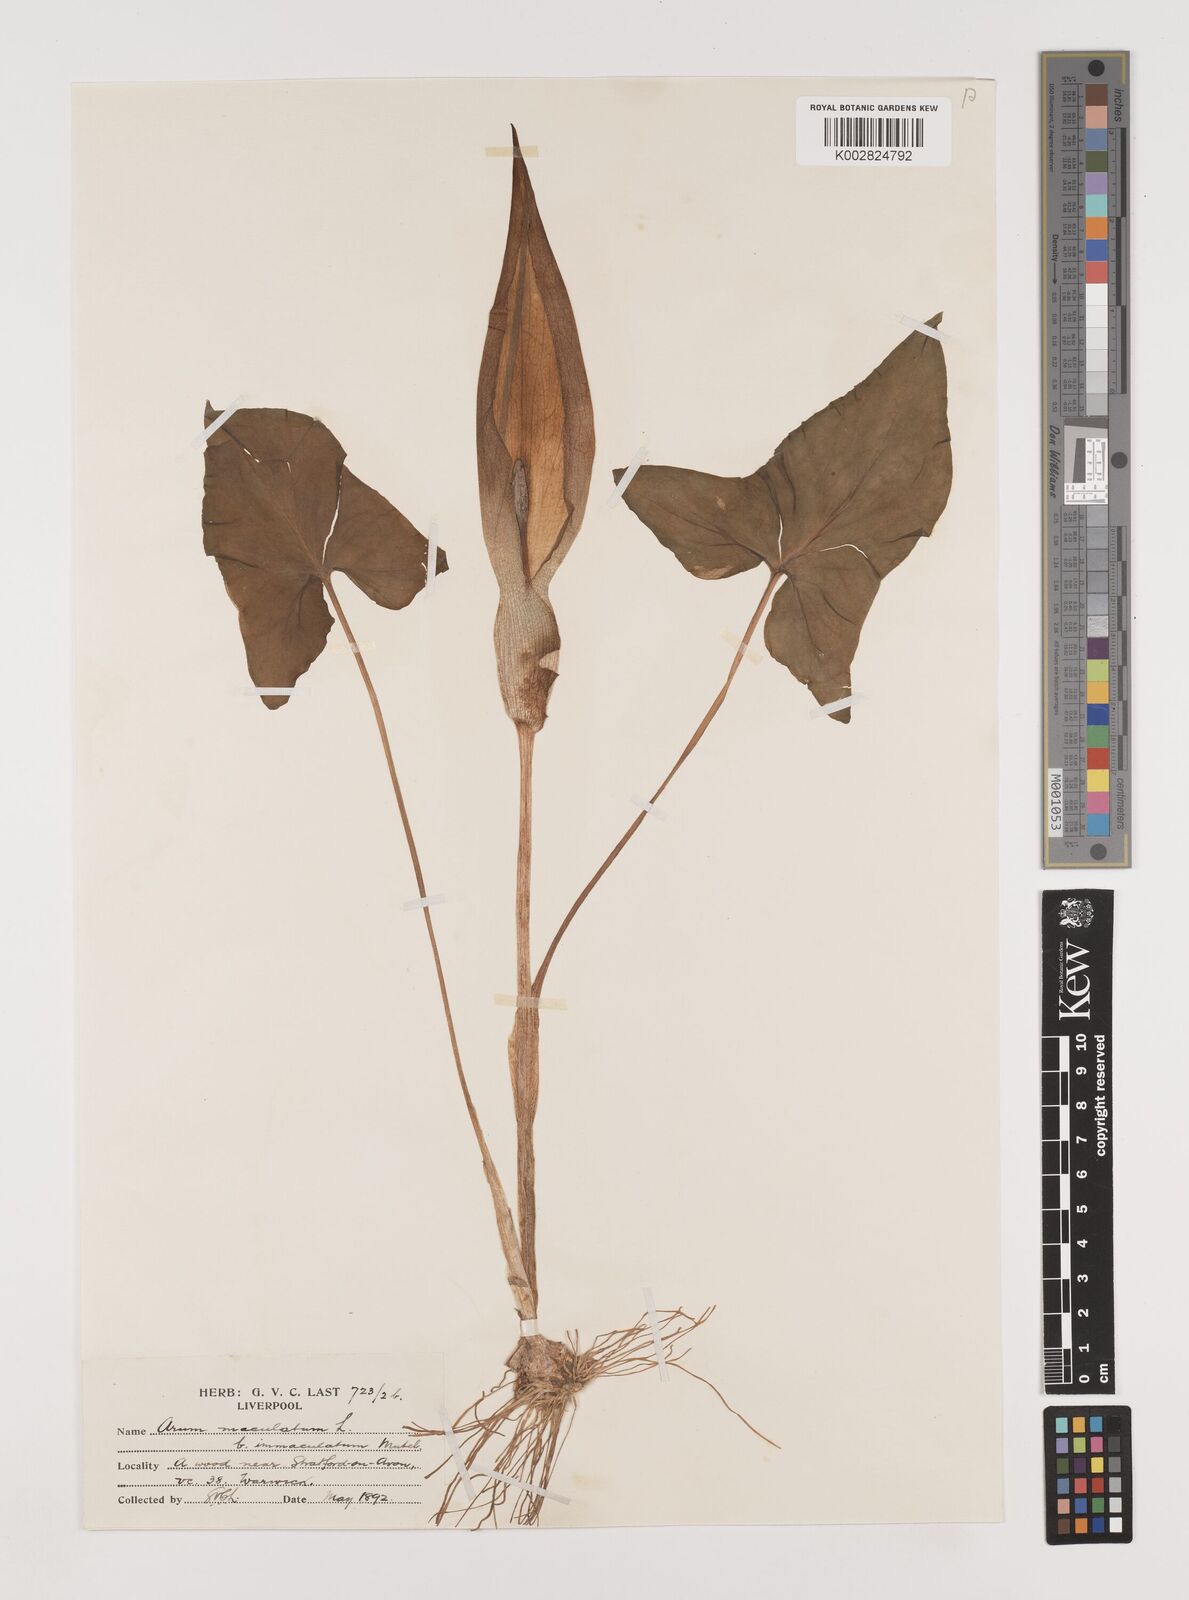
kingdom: Plantae
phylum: Tracheophyta
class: Liliopsida
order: Alismatales
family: Araceae
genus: Arum
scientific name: Arum maculatum
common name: Lords-and-ladies
